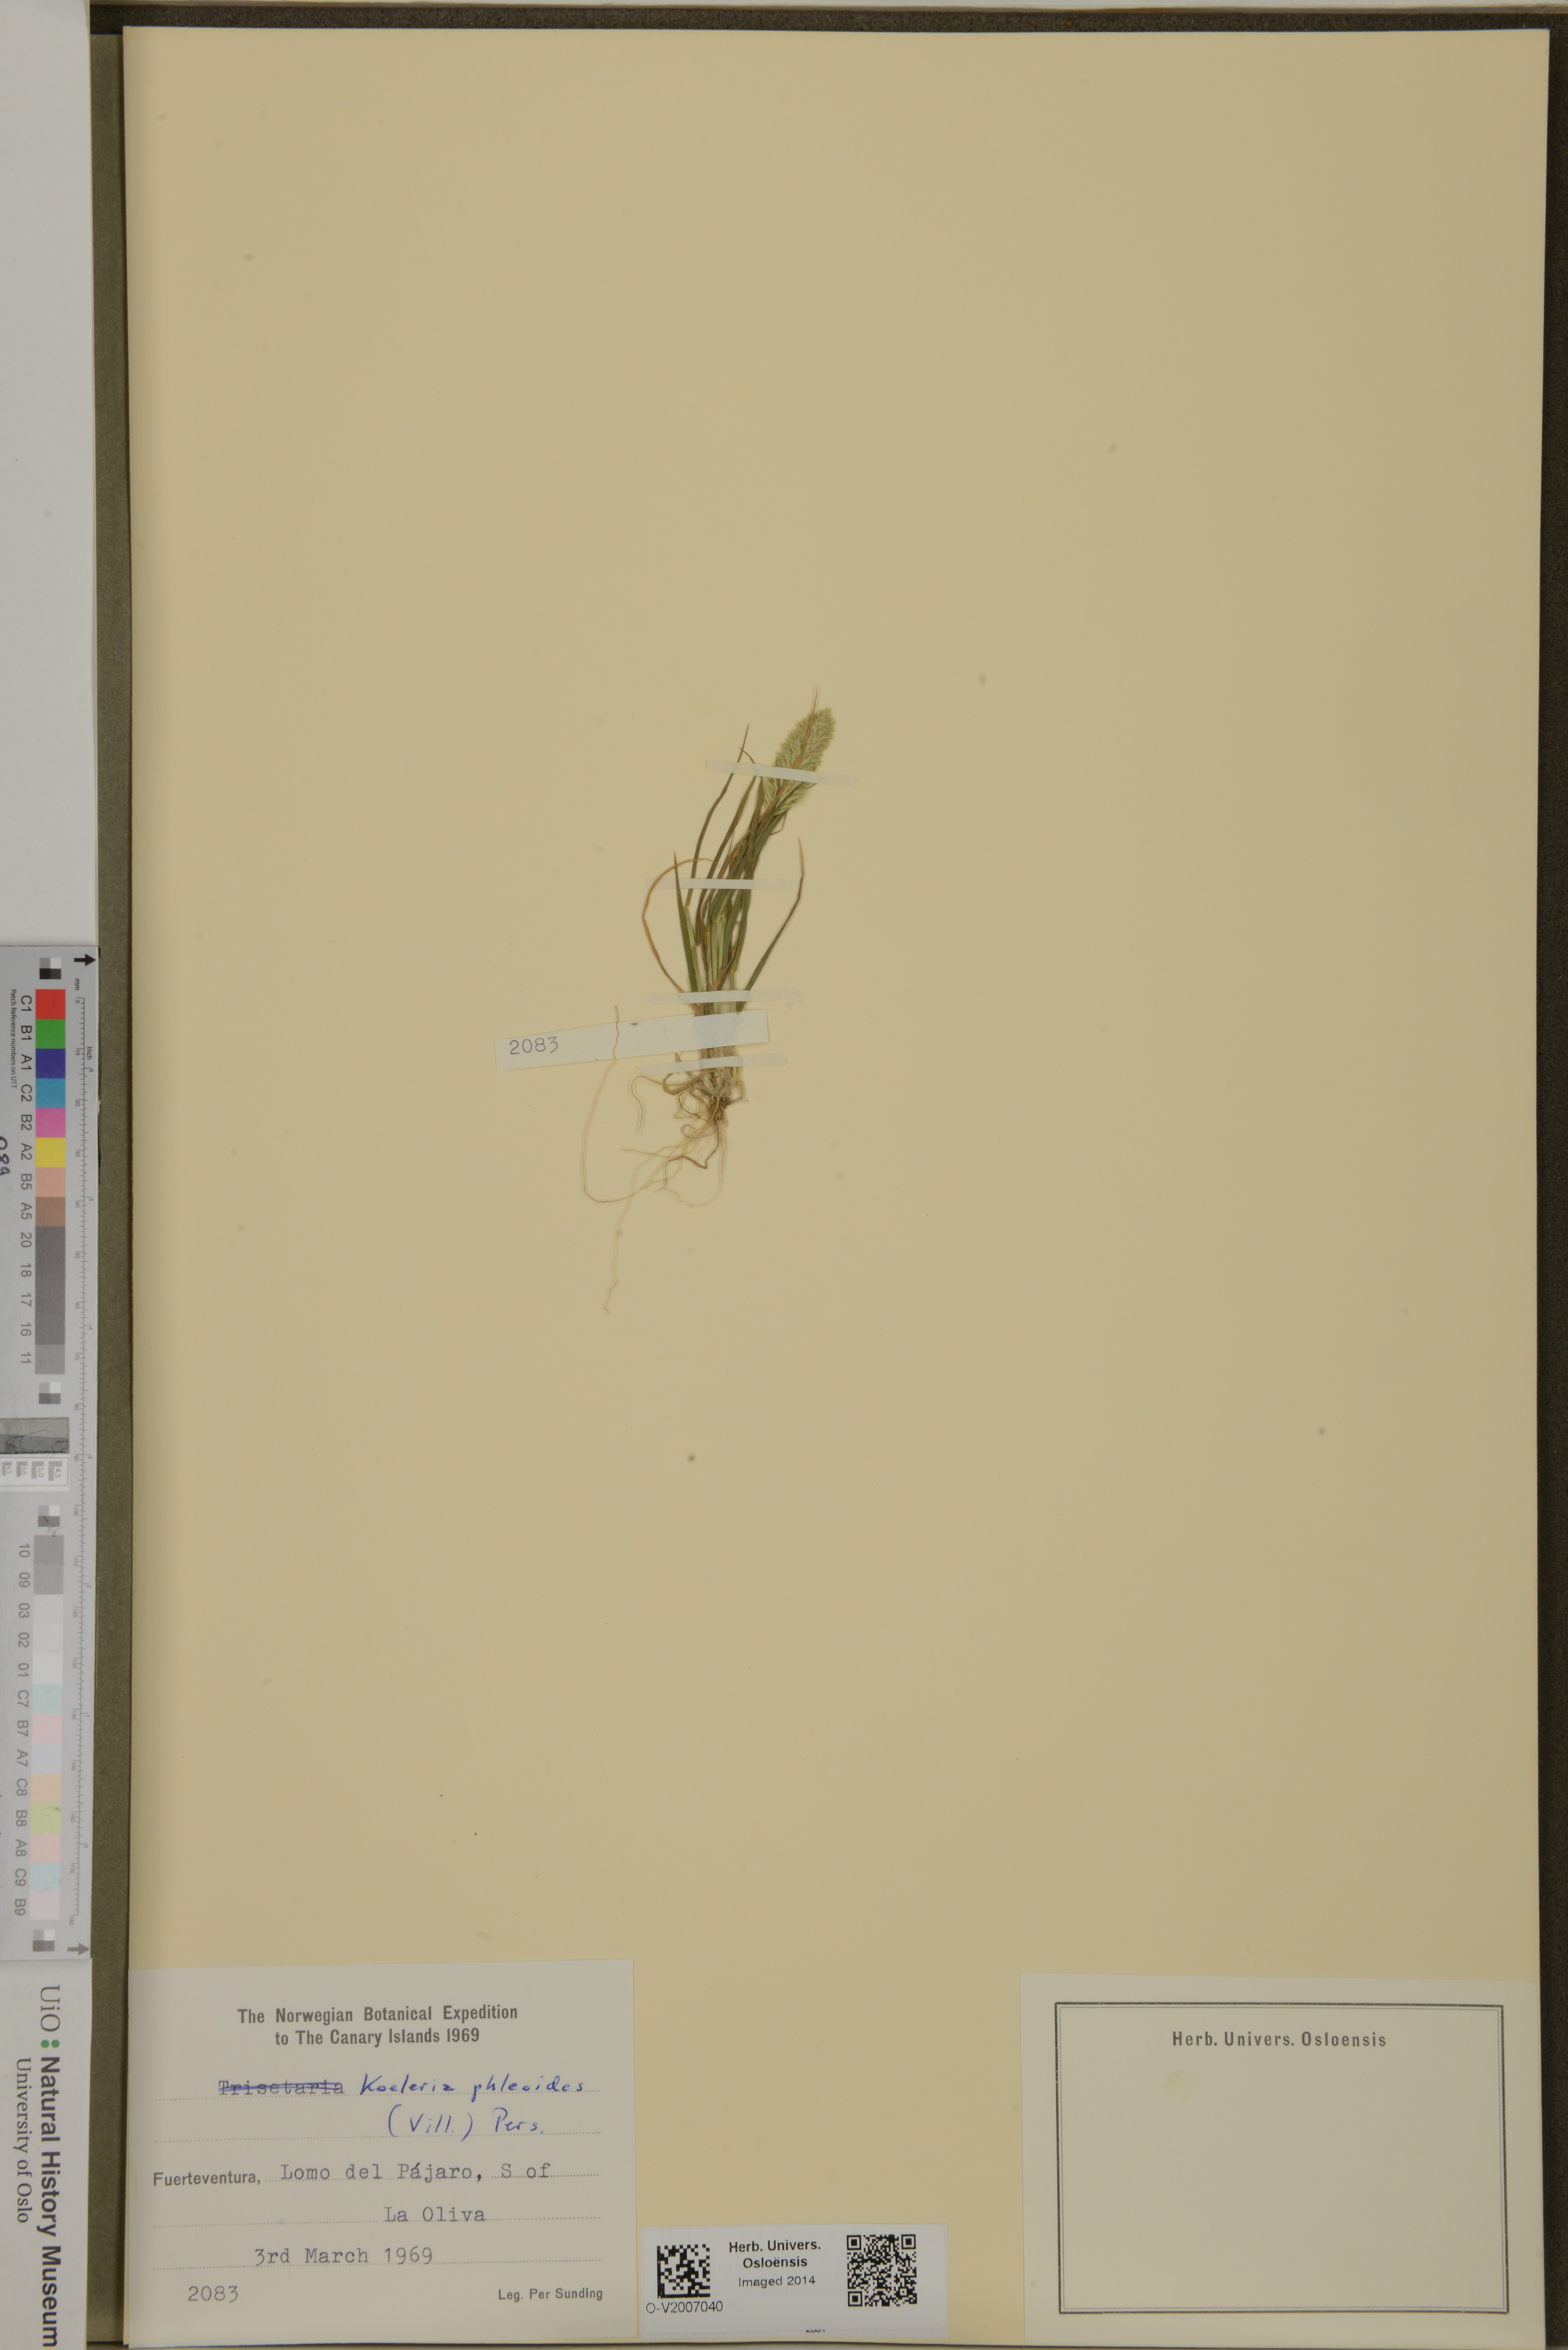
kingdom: Plantae
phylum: Tracheophyta
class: Liliopsida
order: Poales
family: Poaceae
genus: Rostraria
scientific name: Rostraria cristata
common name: Mediterranean hair-grass
